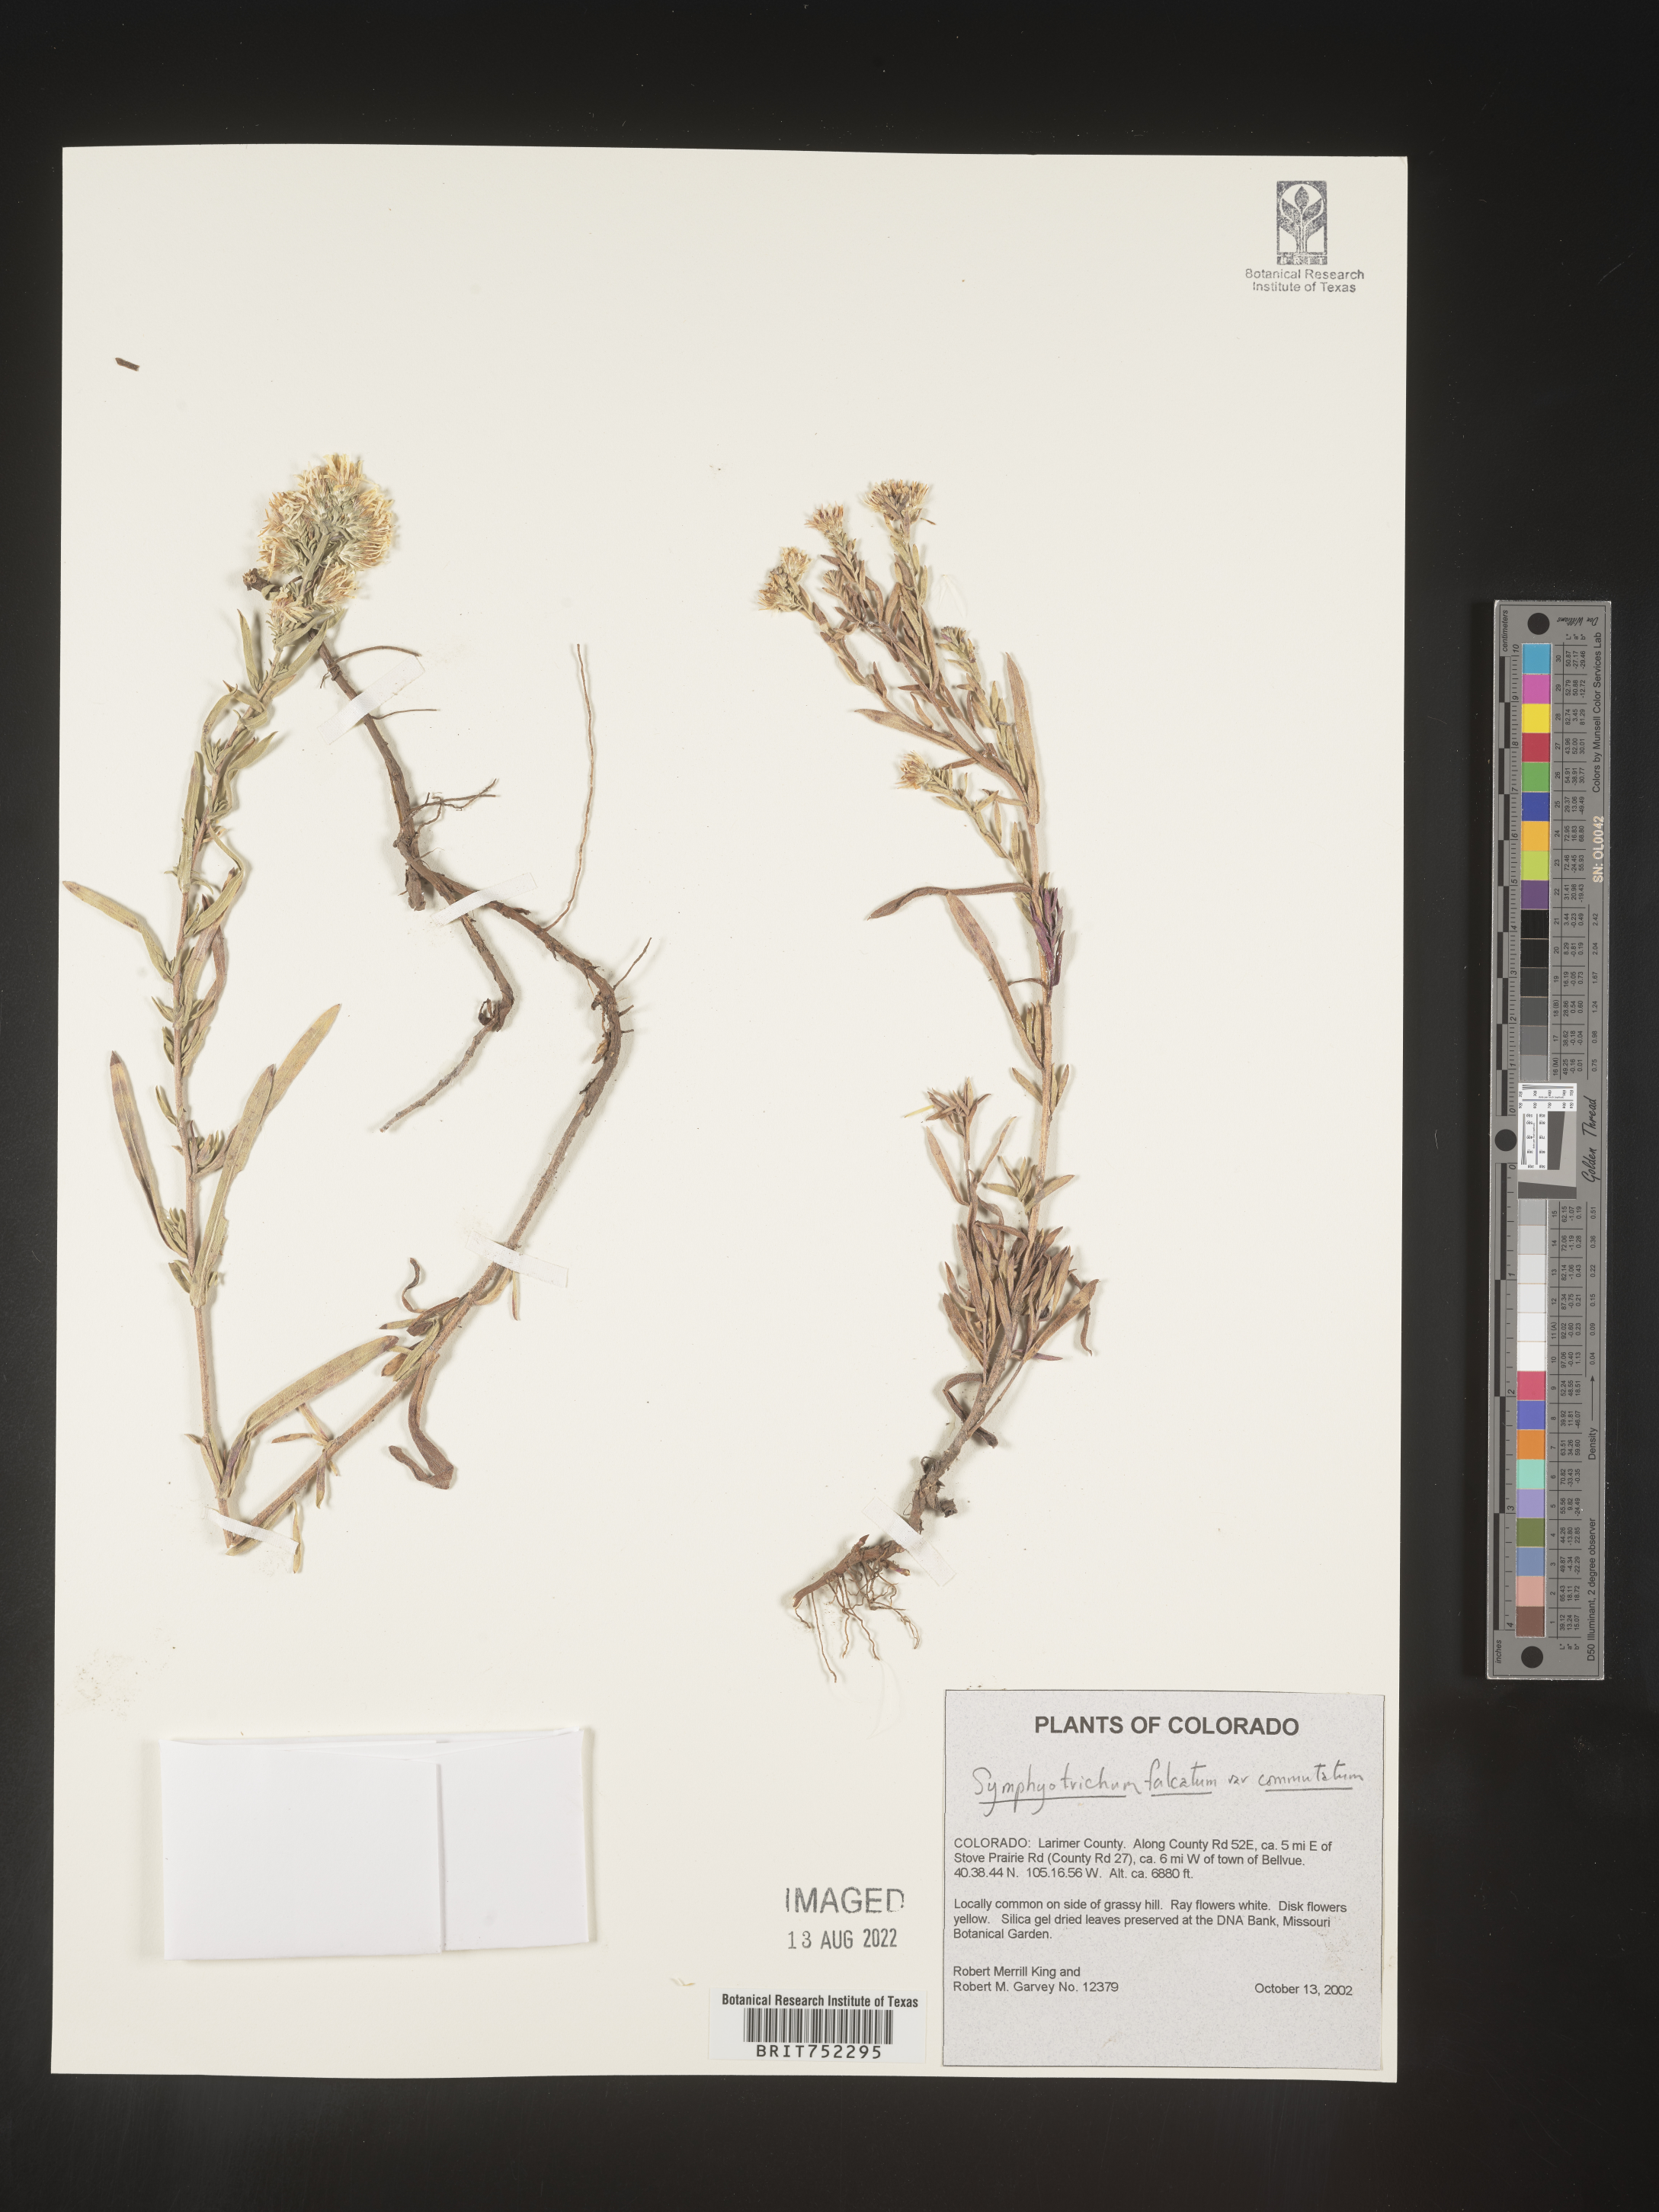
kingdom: Plantae
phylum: Tracheophyta
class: Magnoliopsida
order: Asterales
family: Asteraceae
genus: Symphyotrichum
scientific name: Symphyotrichum falcatum
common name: Creeping white prairie aster
